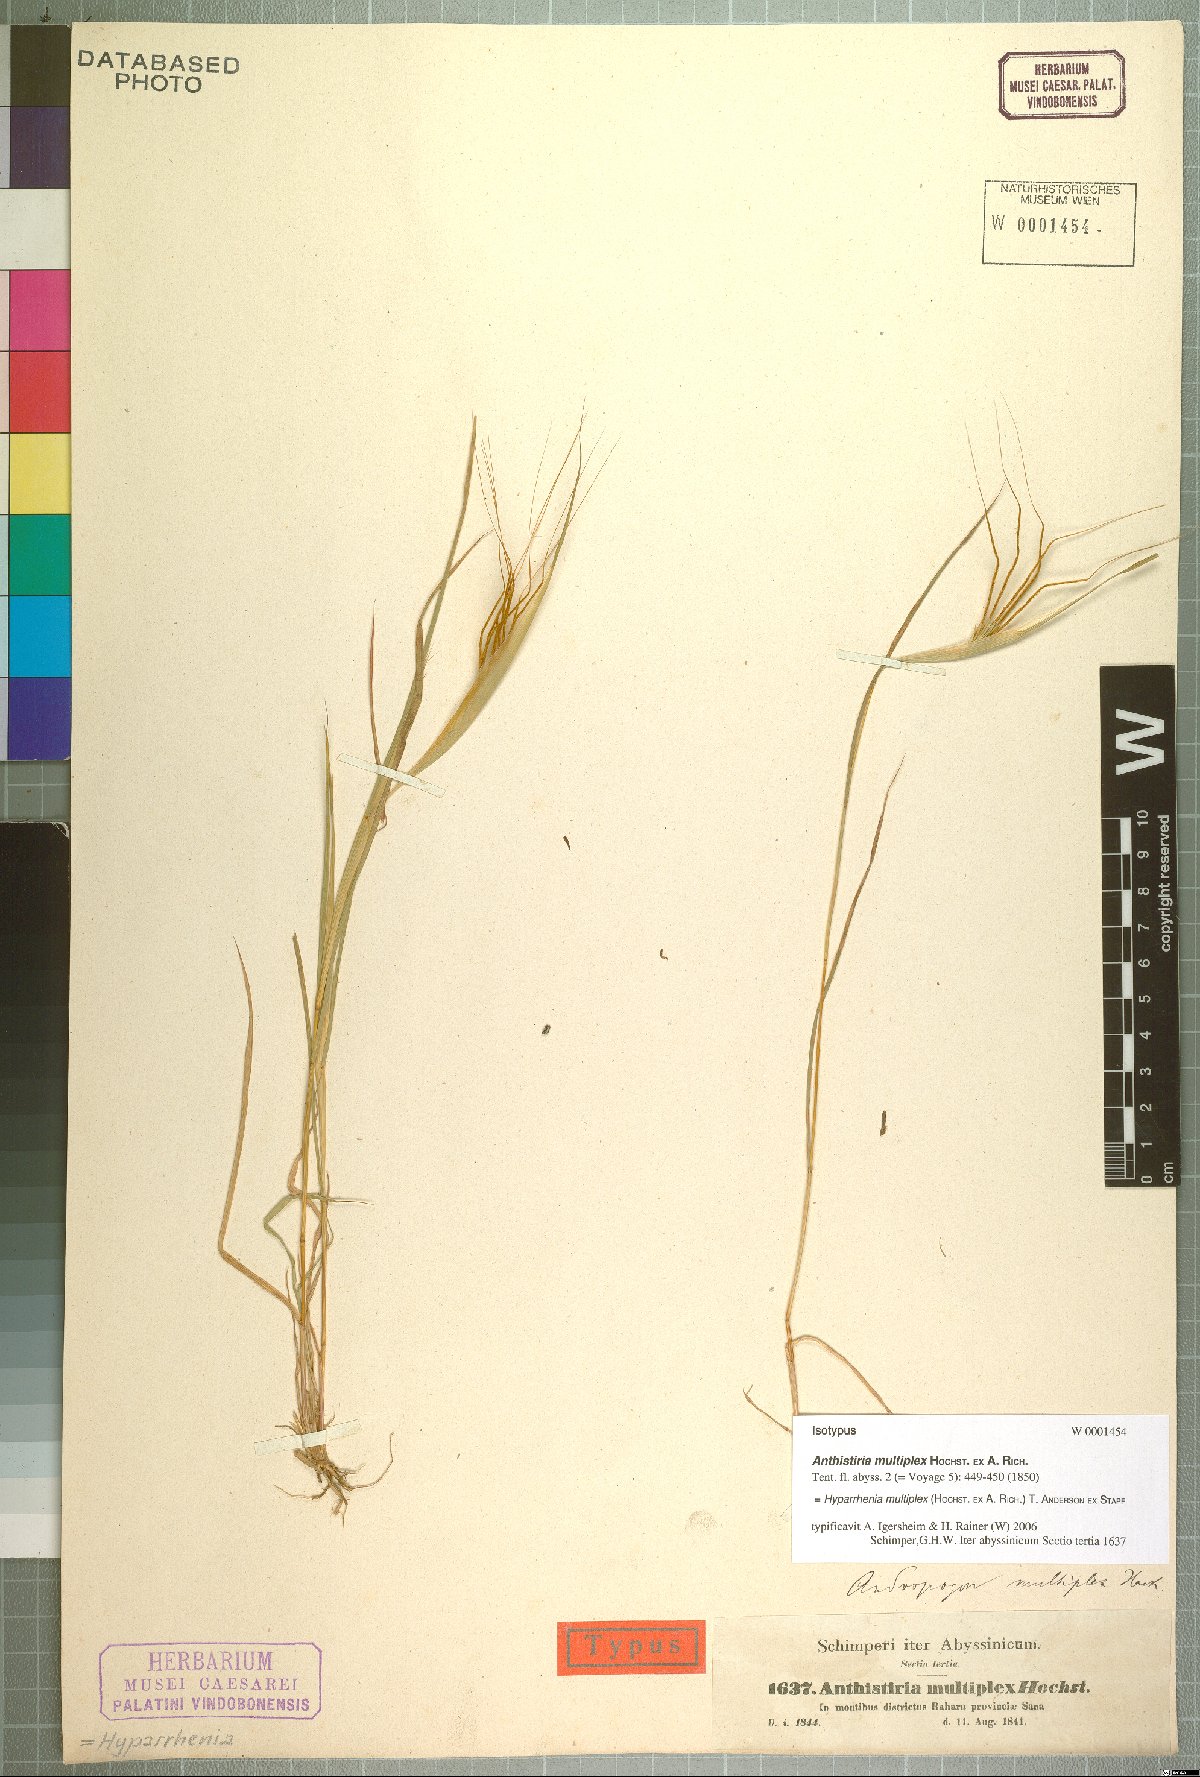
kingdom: Plantae
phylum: Tracheophyta
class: Liliopsida
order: Poales
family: Poaceae
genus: Hyparrhenia
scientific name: Hyparrhenia multiplex
